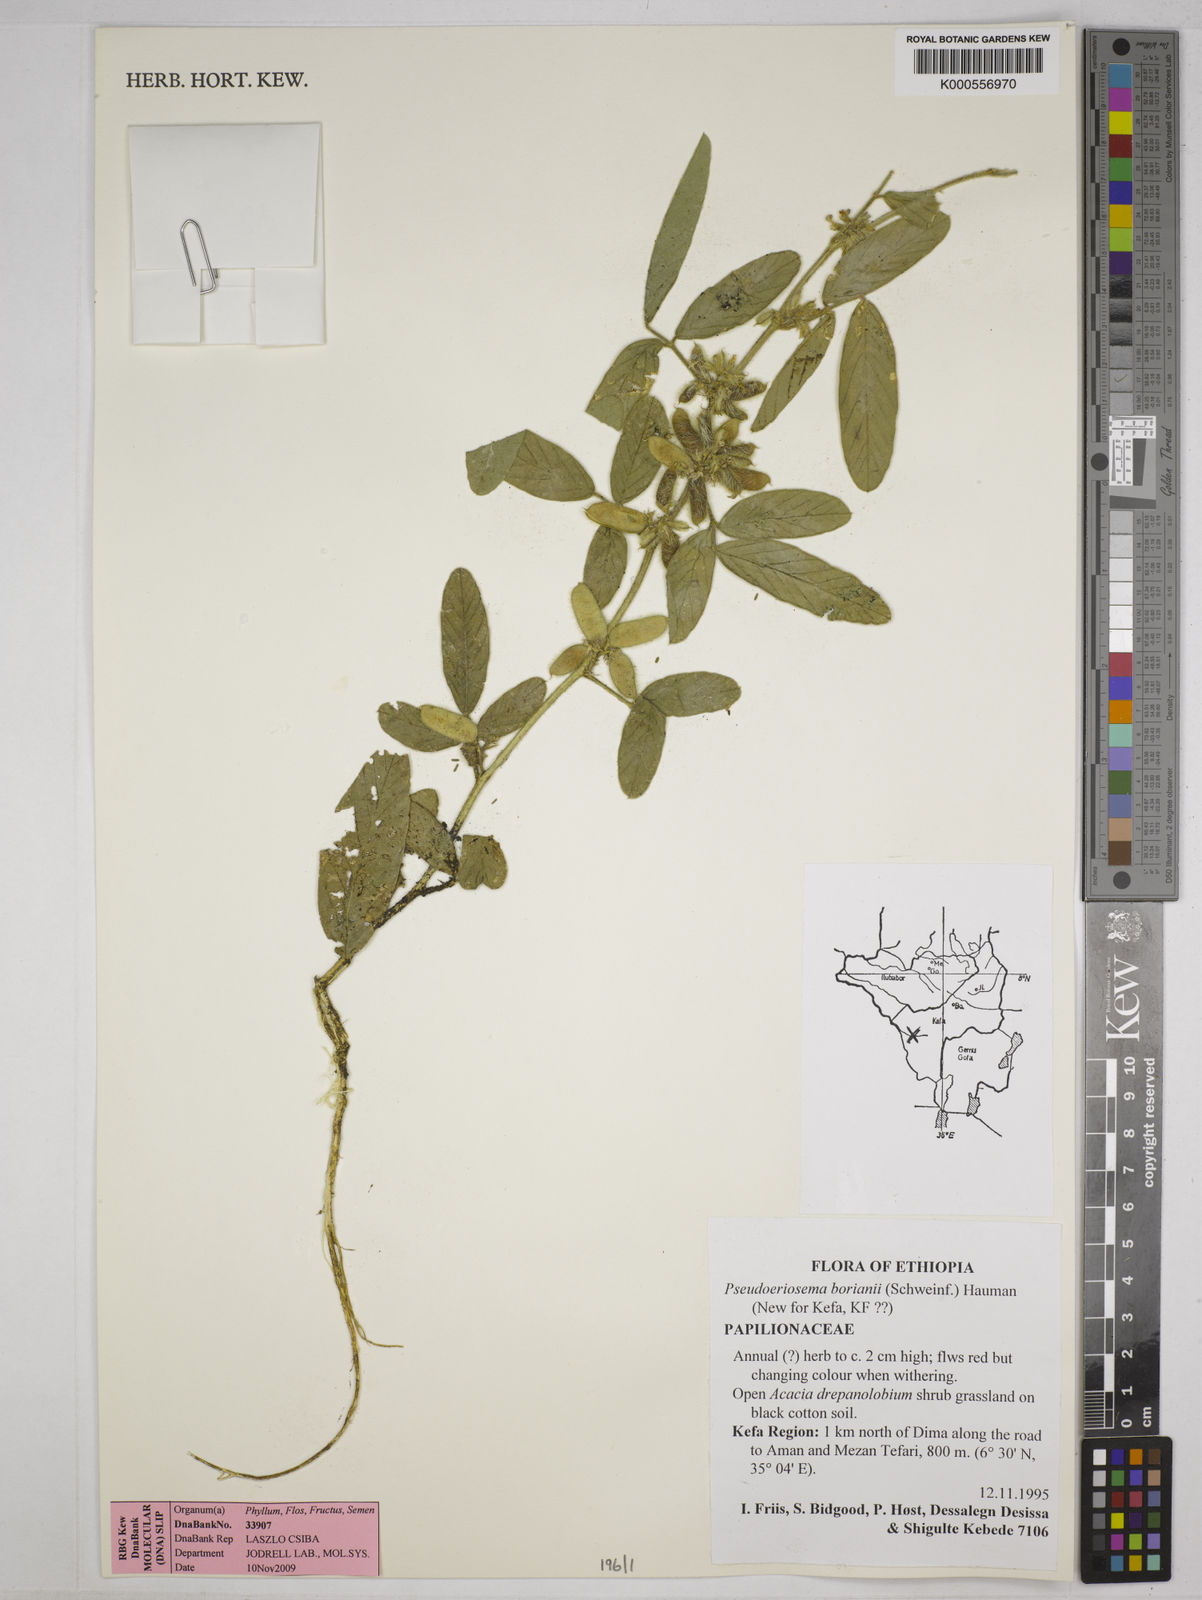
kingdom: Plantae
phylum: Tracheophyta
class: Magnoliopsida
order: Fabales
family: Fabaceae
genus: Pseudoeriosema
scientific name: Pseudoeriosema borianii
